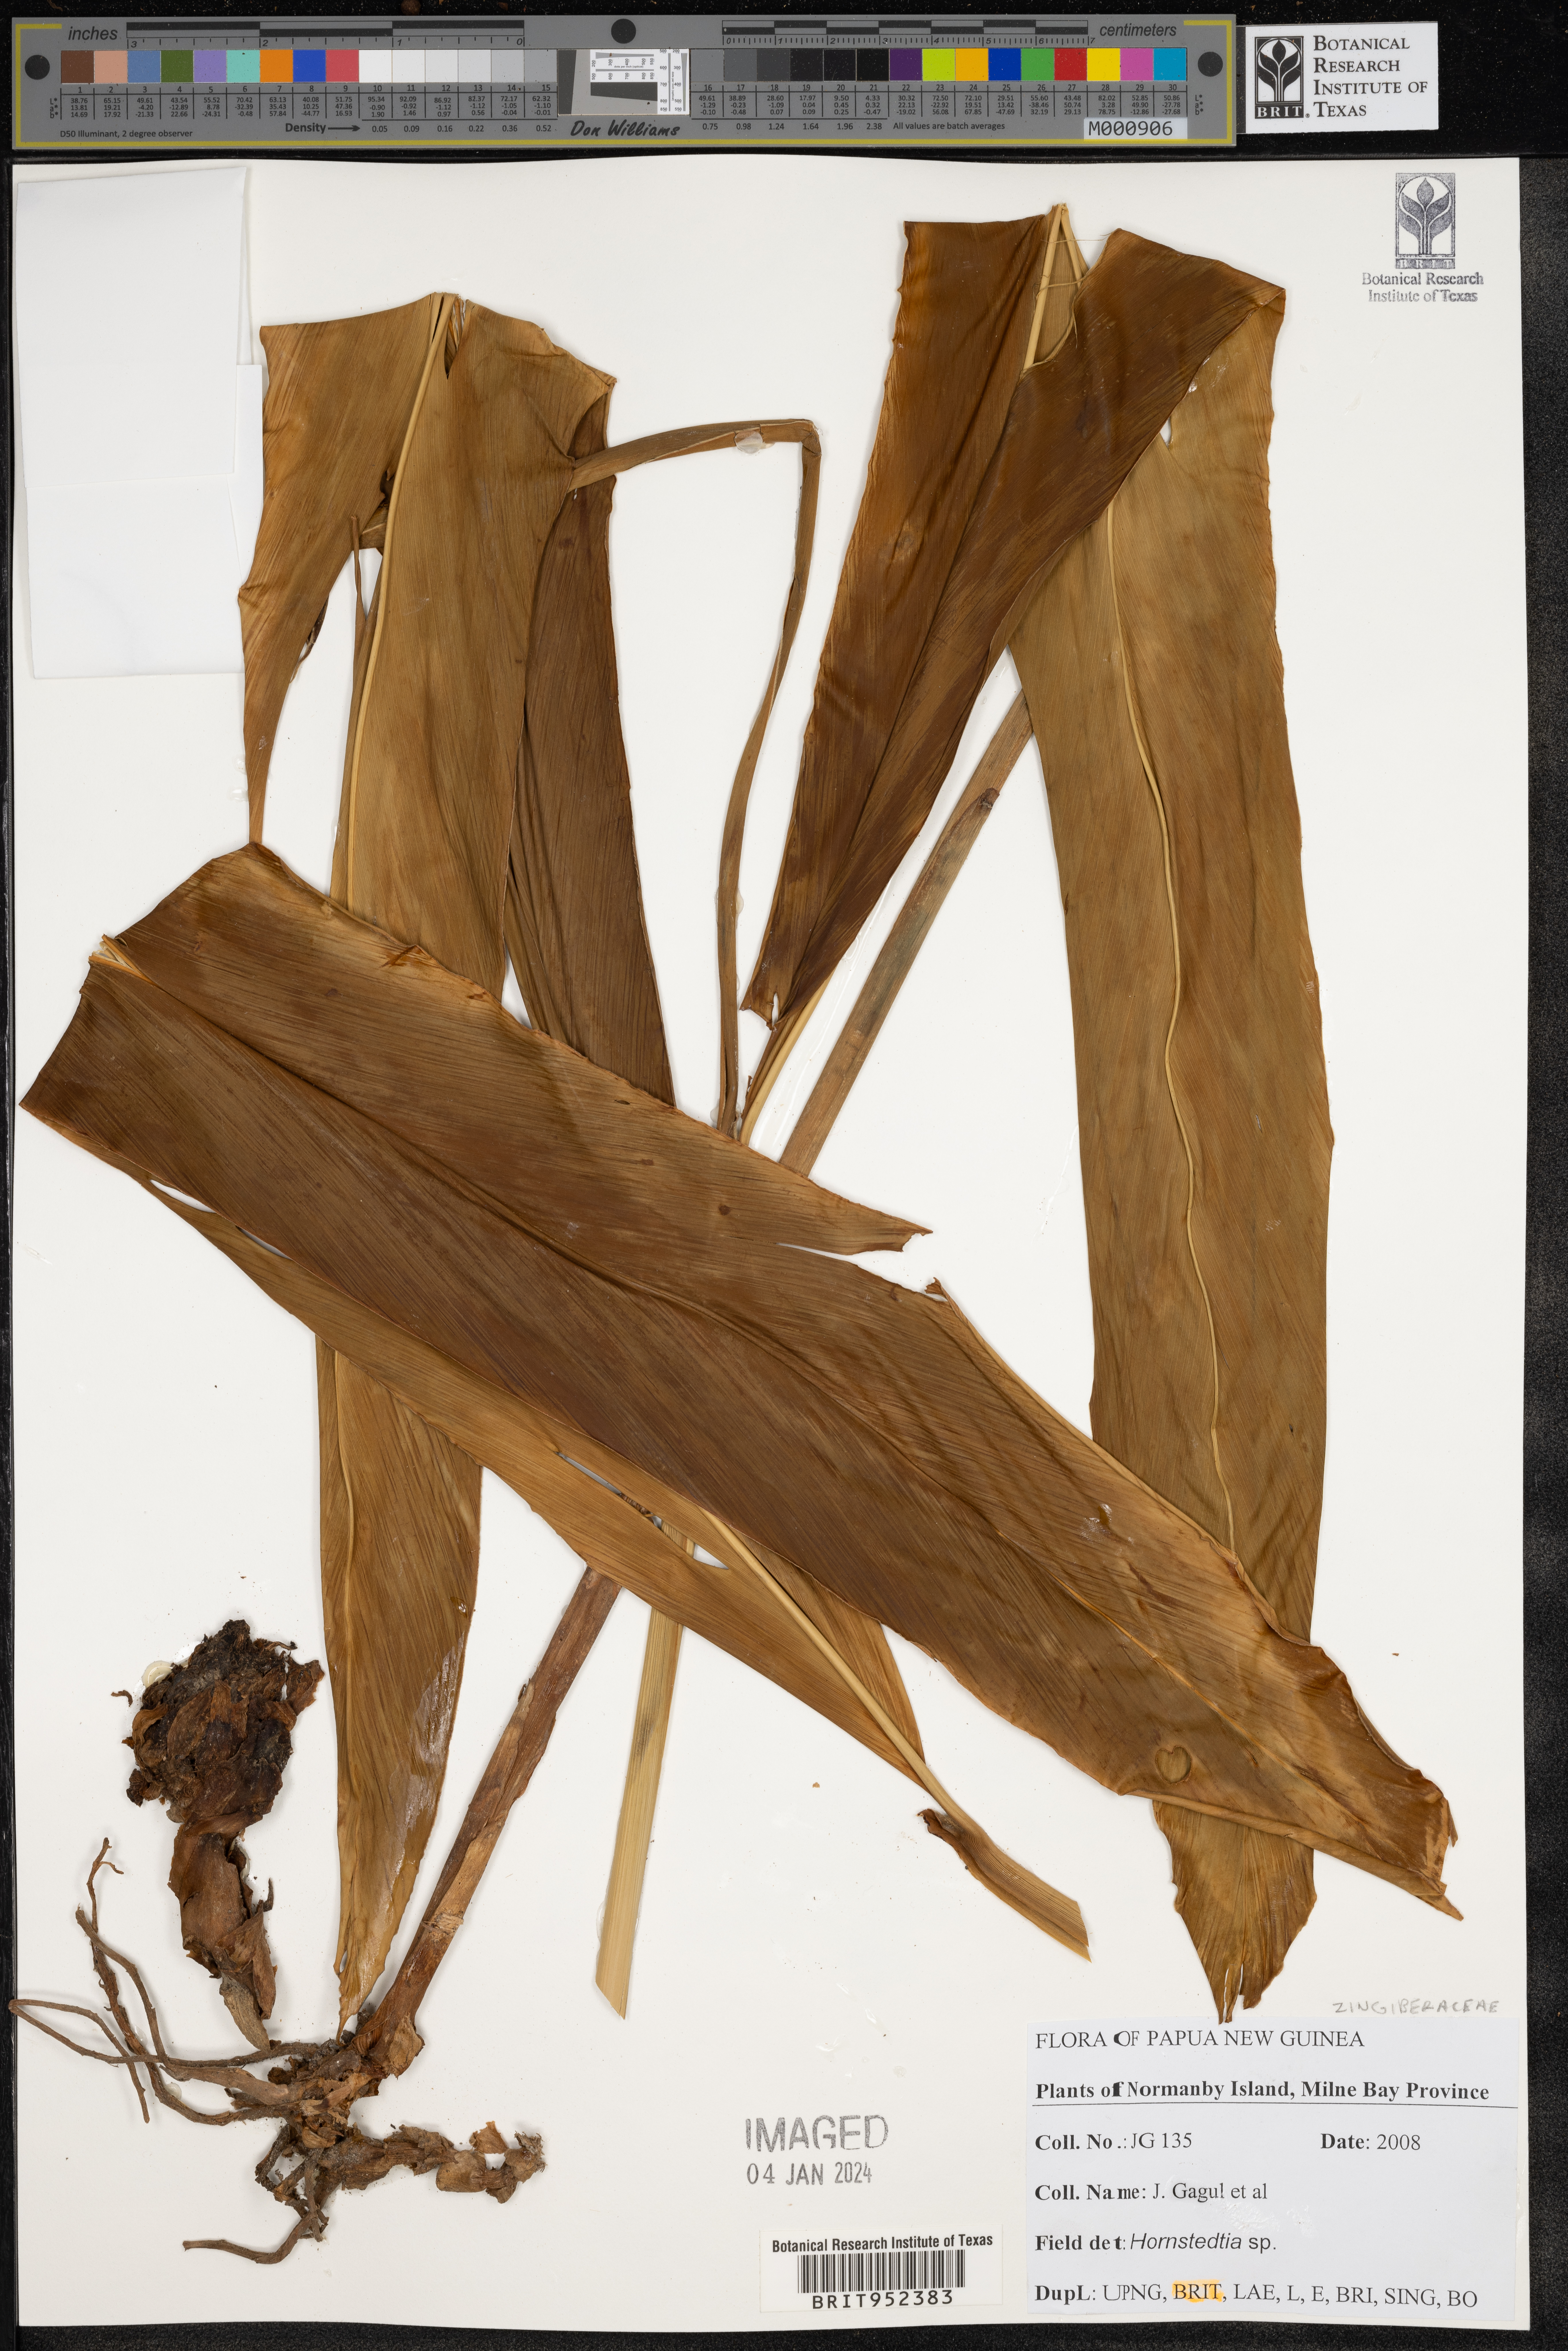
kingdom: Plantae
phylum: Tracheophyta
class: Liliopsida
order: Zingiberales
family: Zingiberaceae
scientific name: Zingiberaceae
